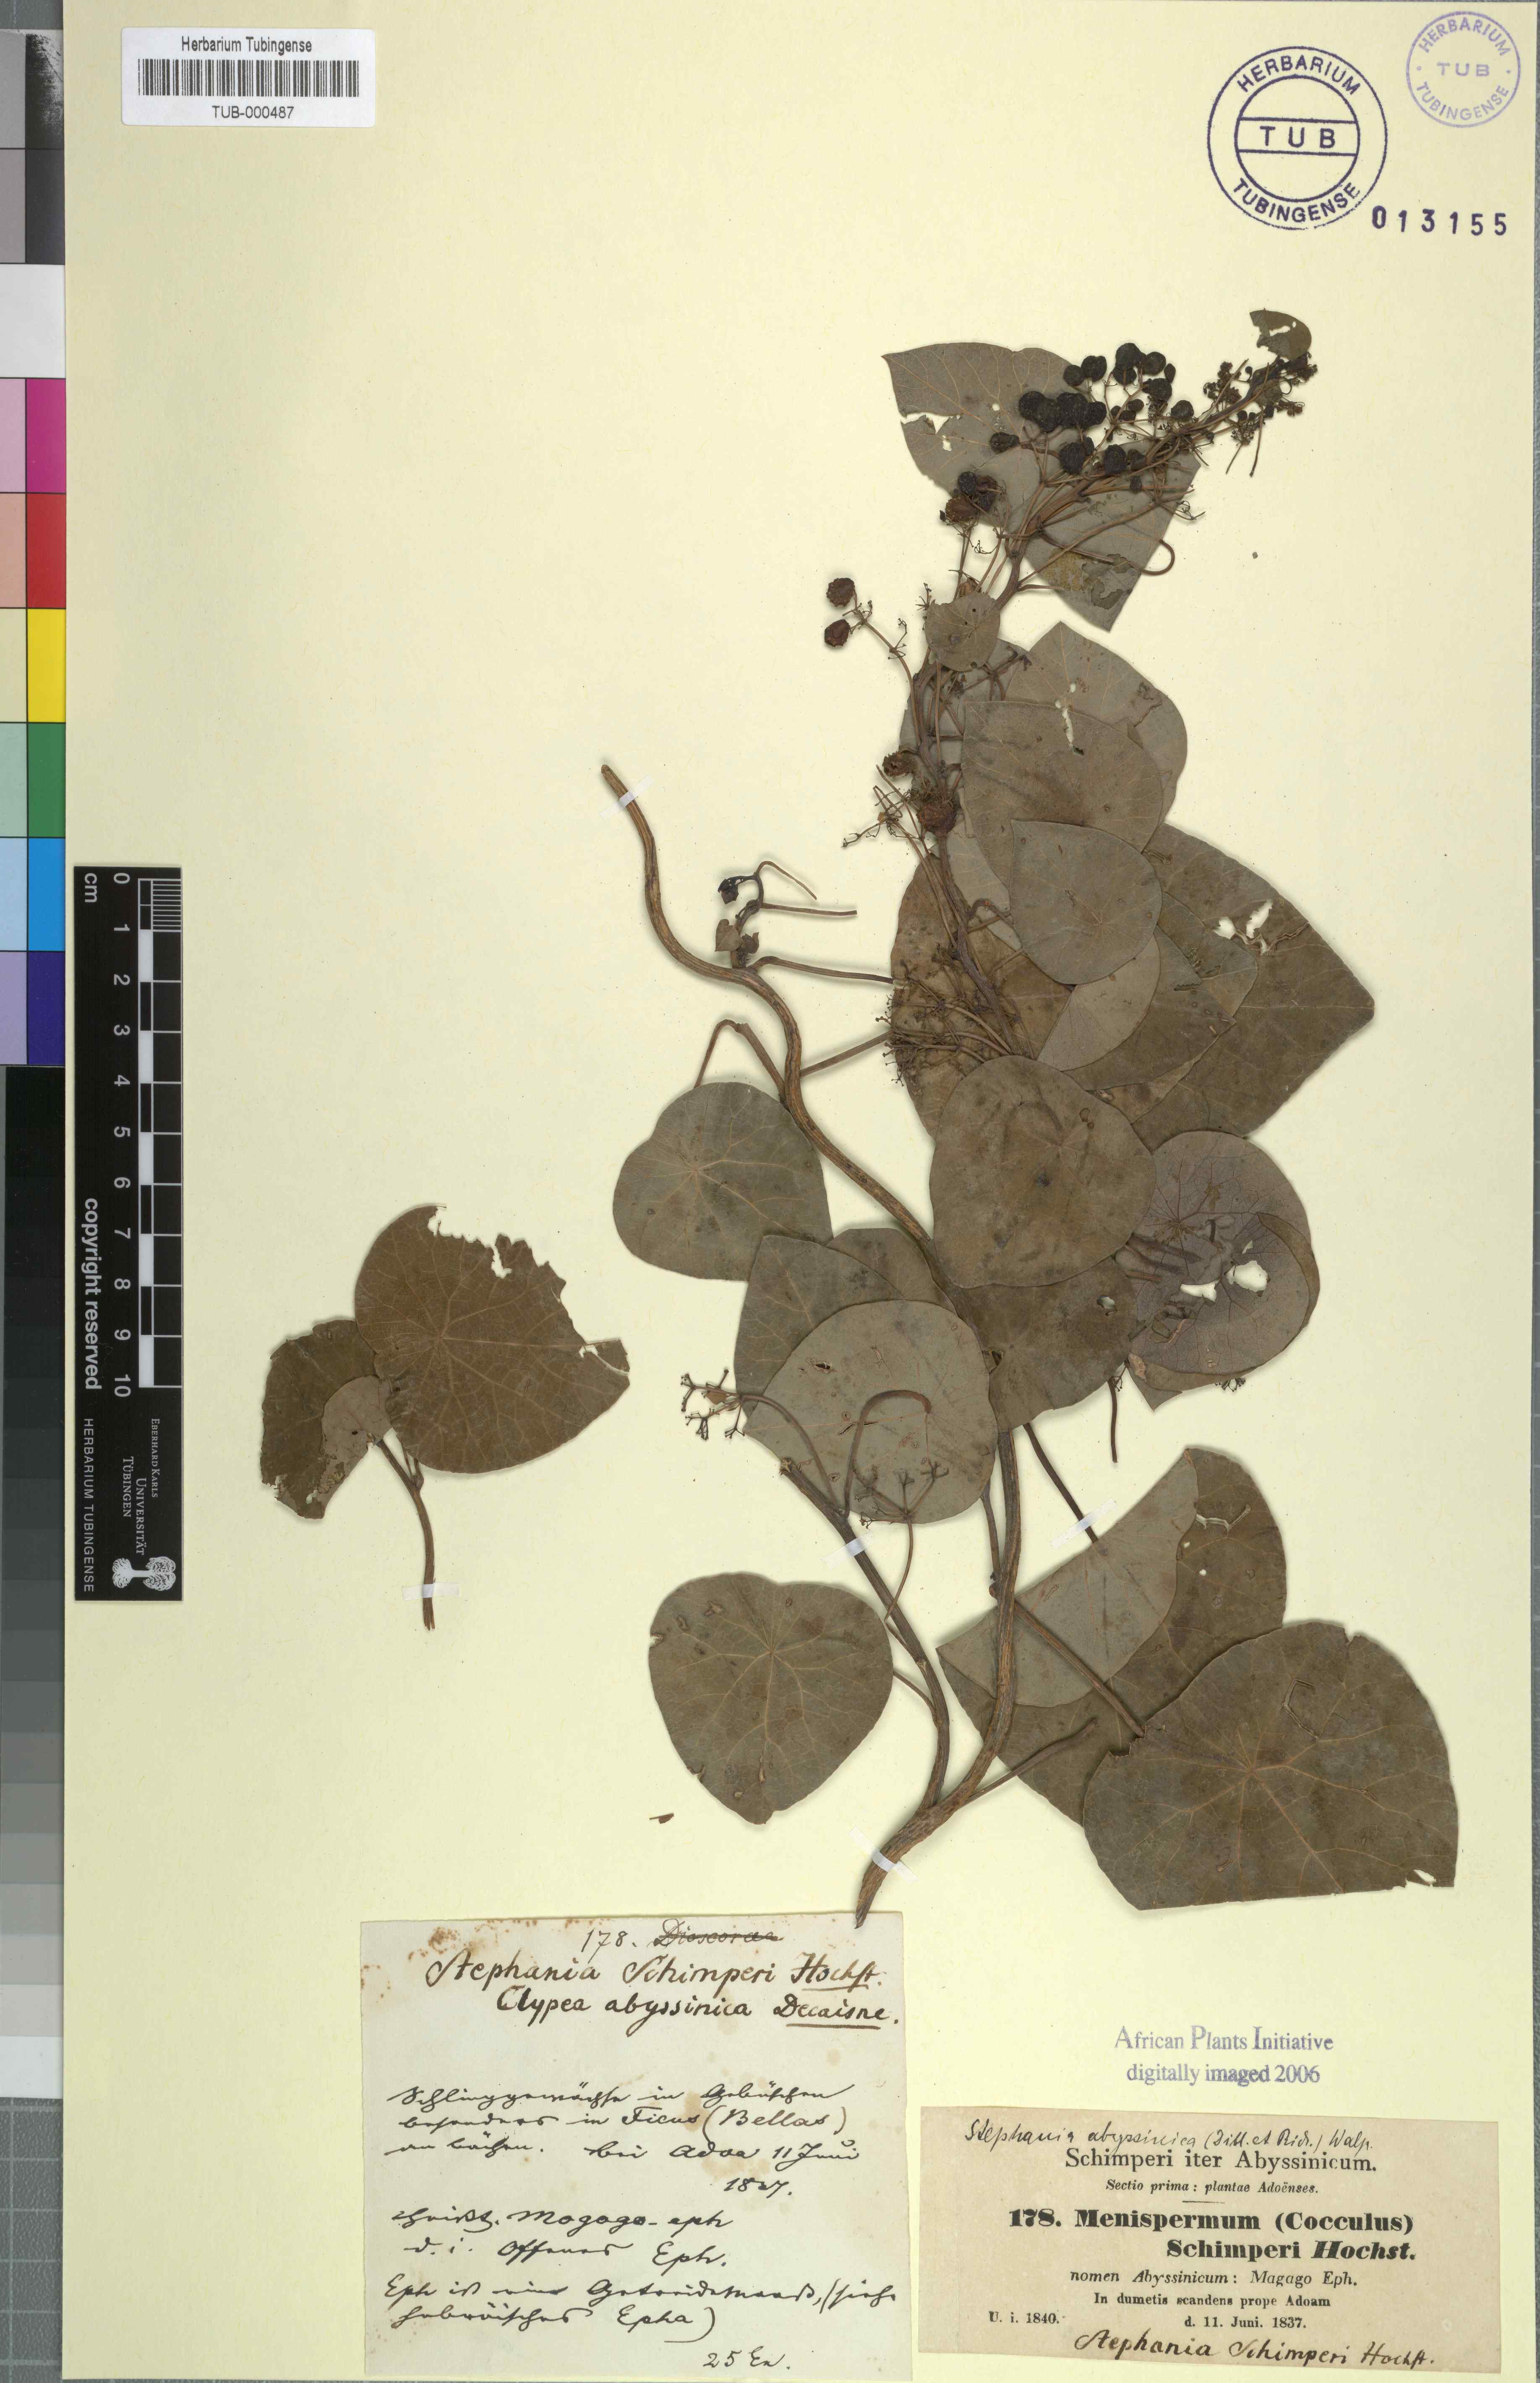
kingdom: Plantae
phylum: Tracheophyta
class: Magnoliopsida
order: Ranunculales
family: Menispermaceae
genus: Stephania
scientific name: Stephania abyssinica
